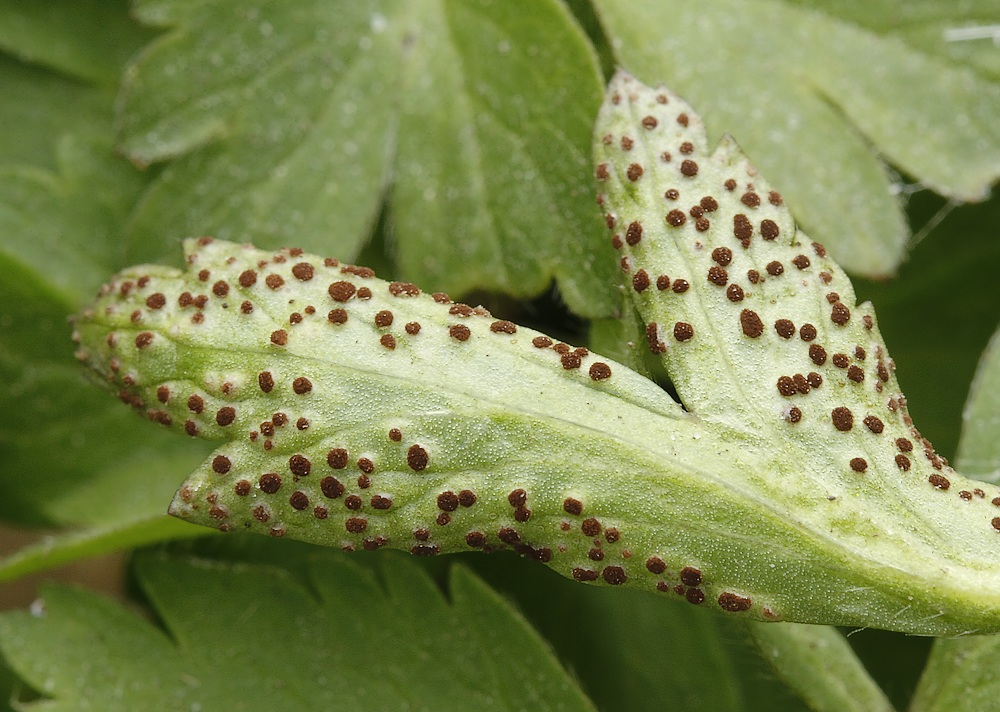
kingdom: Fungi
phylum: Basidiomycota
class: Pucciniomycetes
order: Pucciniales
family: Tranzscheliaceae
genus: Tranzschelia
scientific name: Tranzschelia anemones
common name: anemone-knæksporerust
